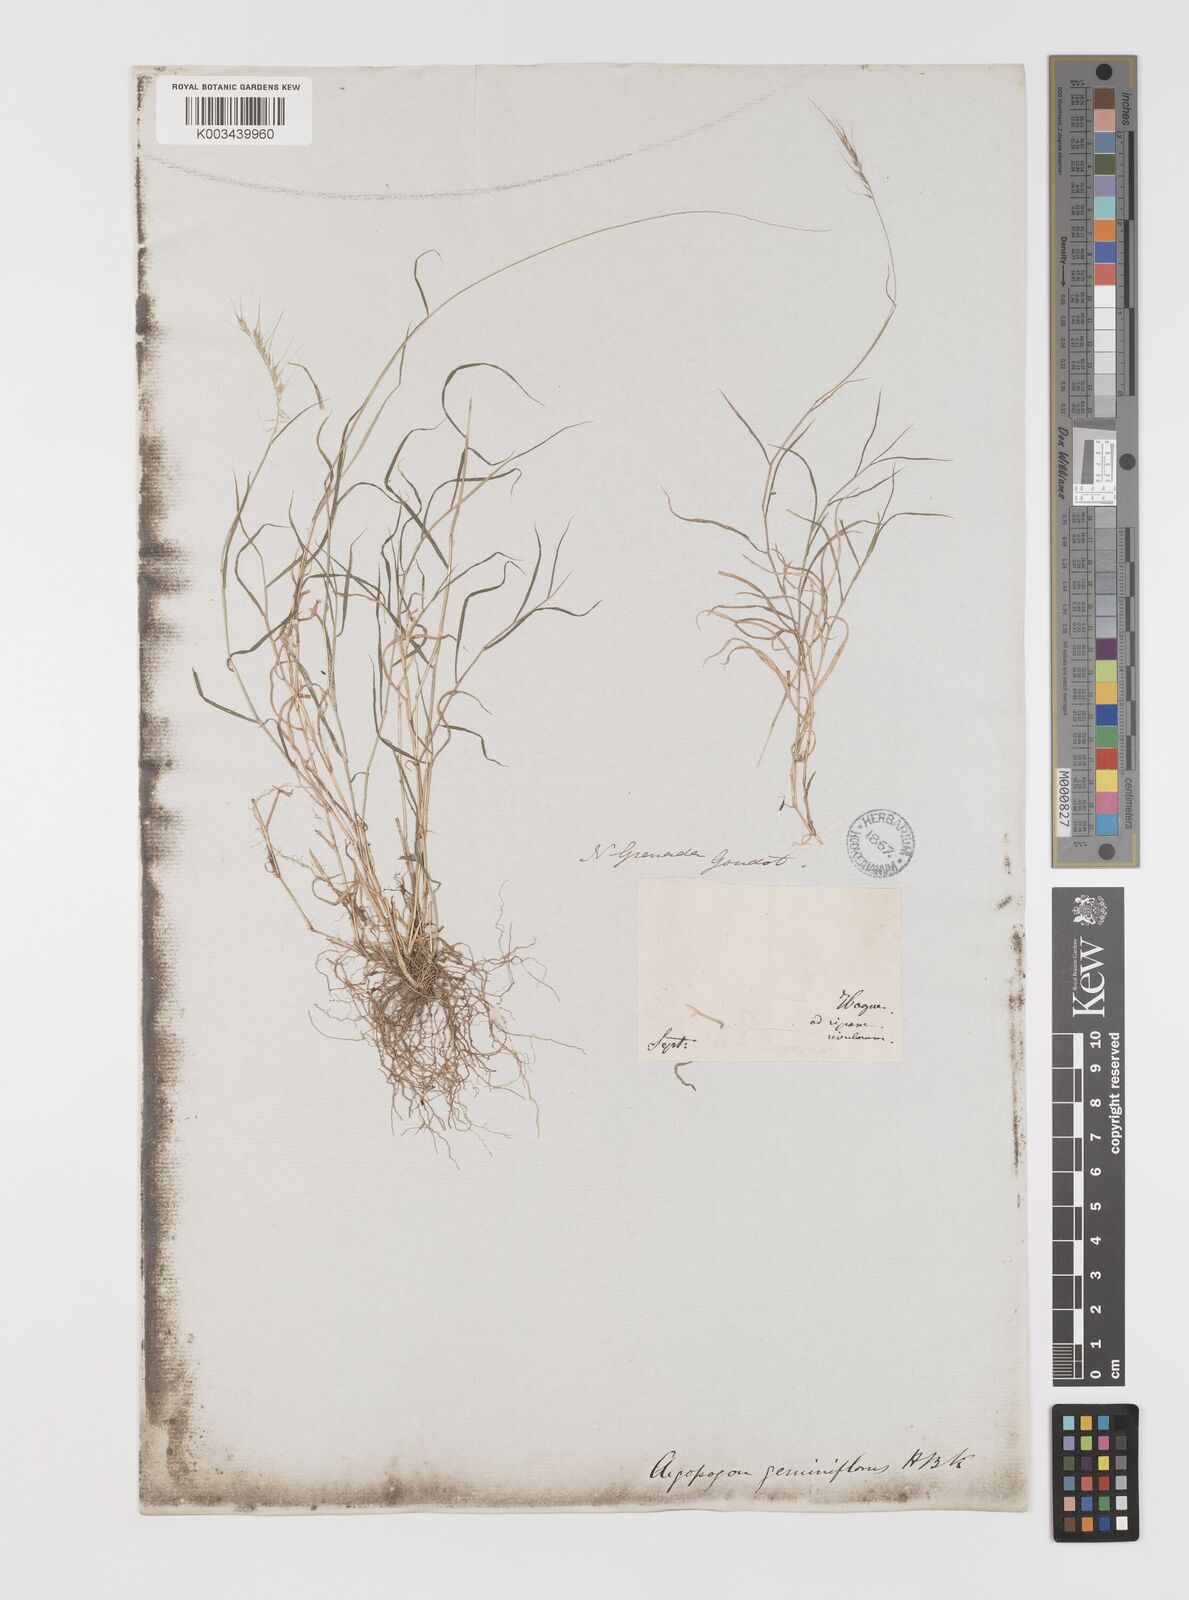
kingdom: Plantae
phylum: Tracheophyta
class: Liliopsida
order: Poales
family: Poaceae
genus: Muhlenbergia
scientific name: Muhlenbergia bryophilus
